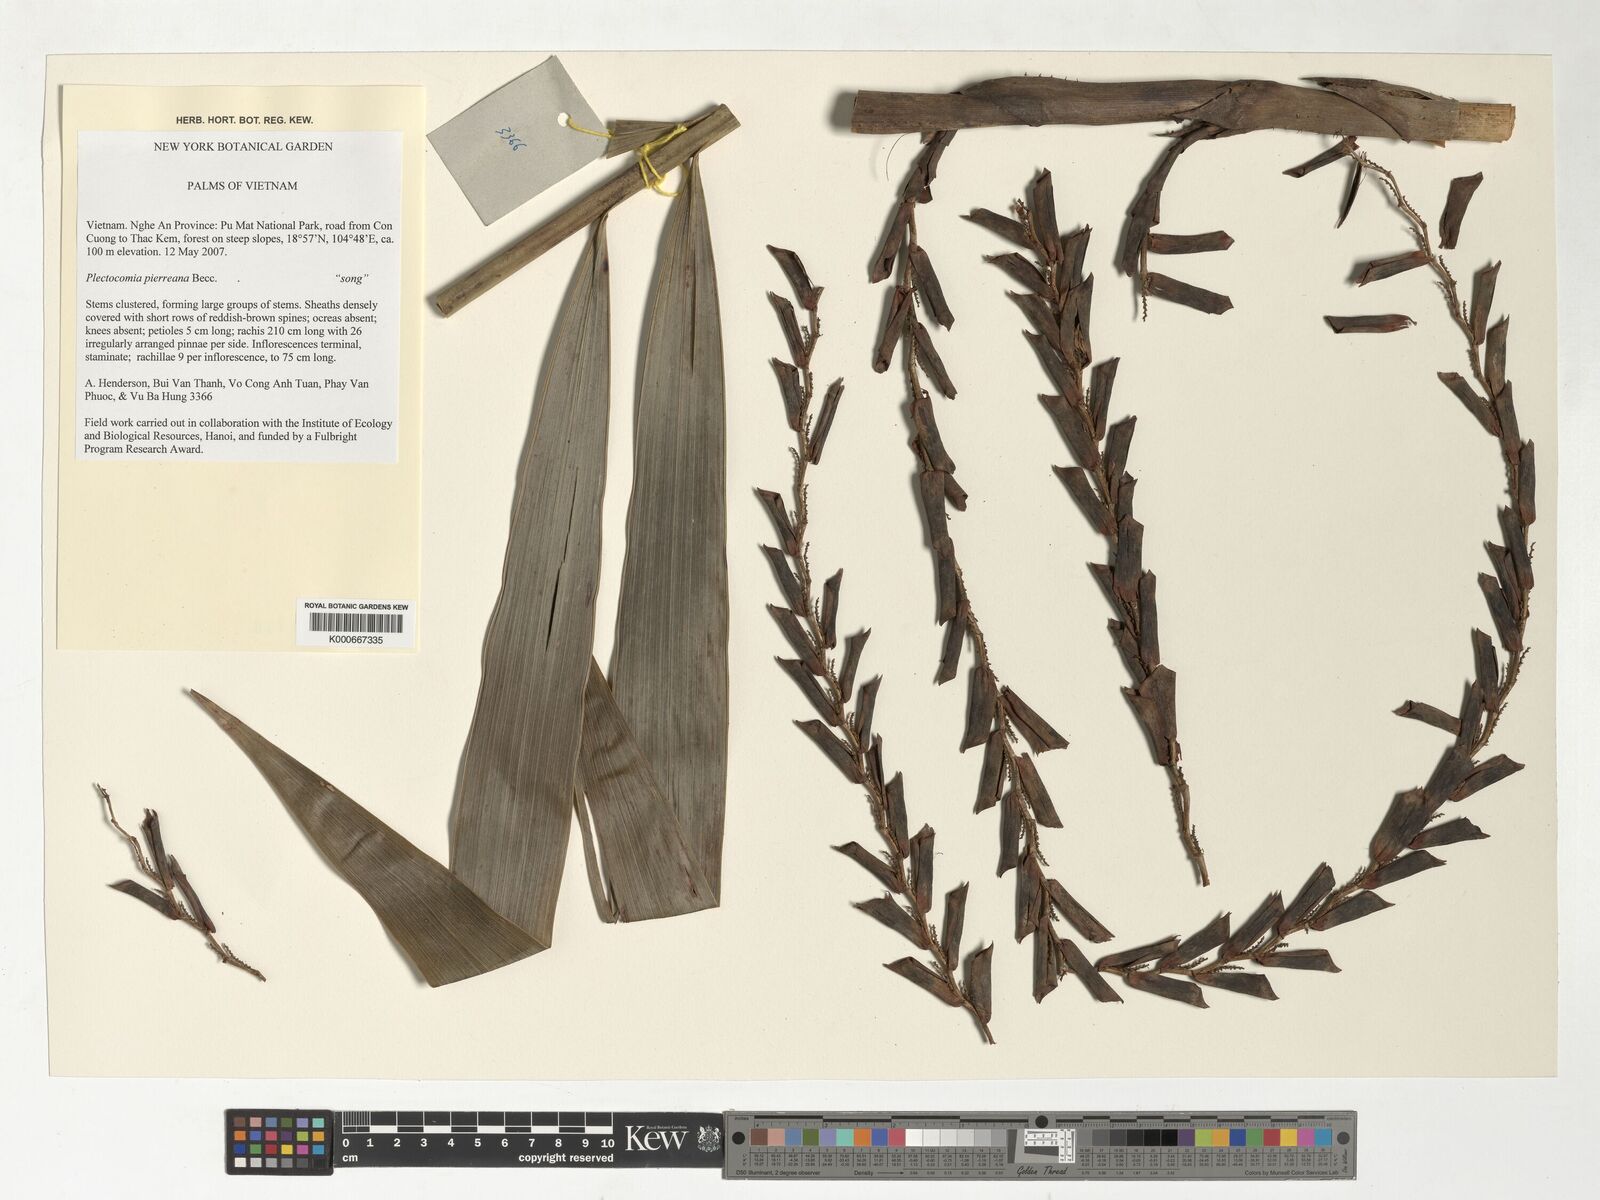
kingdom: Plantae
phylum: Tracheophyta
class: Liliopsida
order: Arecales
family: Arecaceae
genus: Plectocomia
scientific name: Plectocomia pierreana
